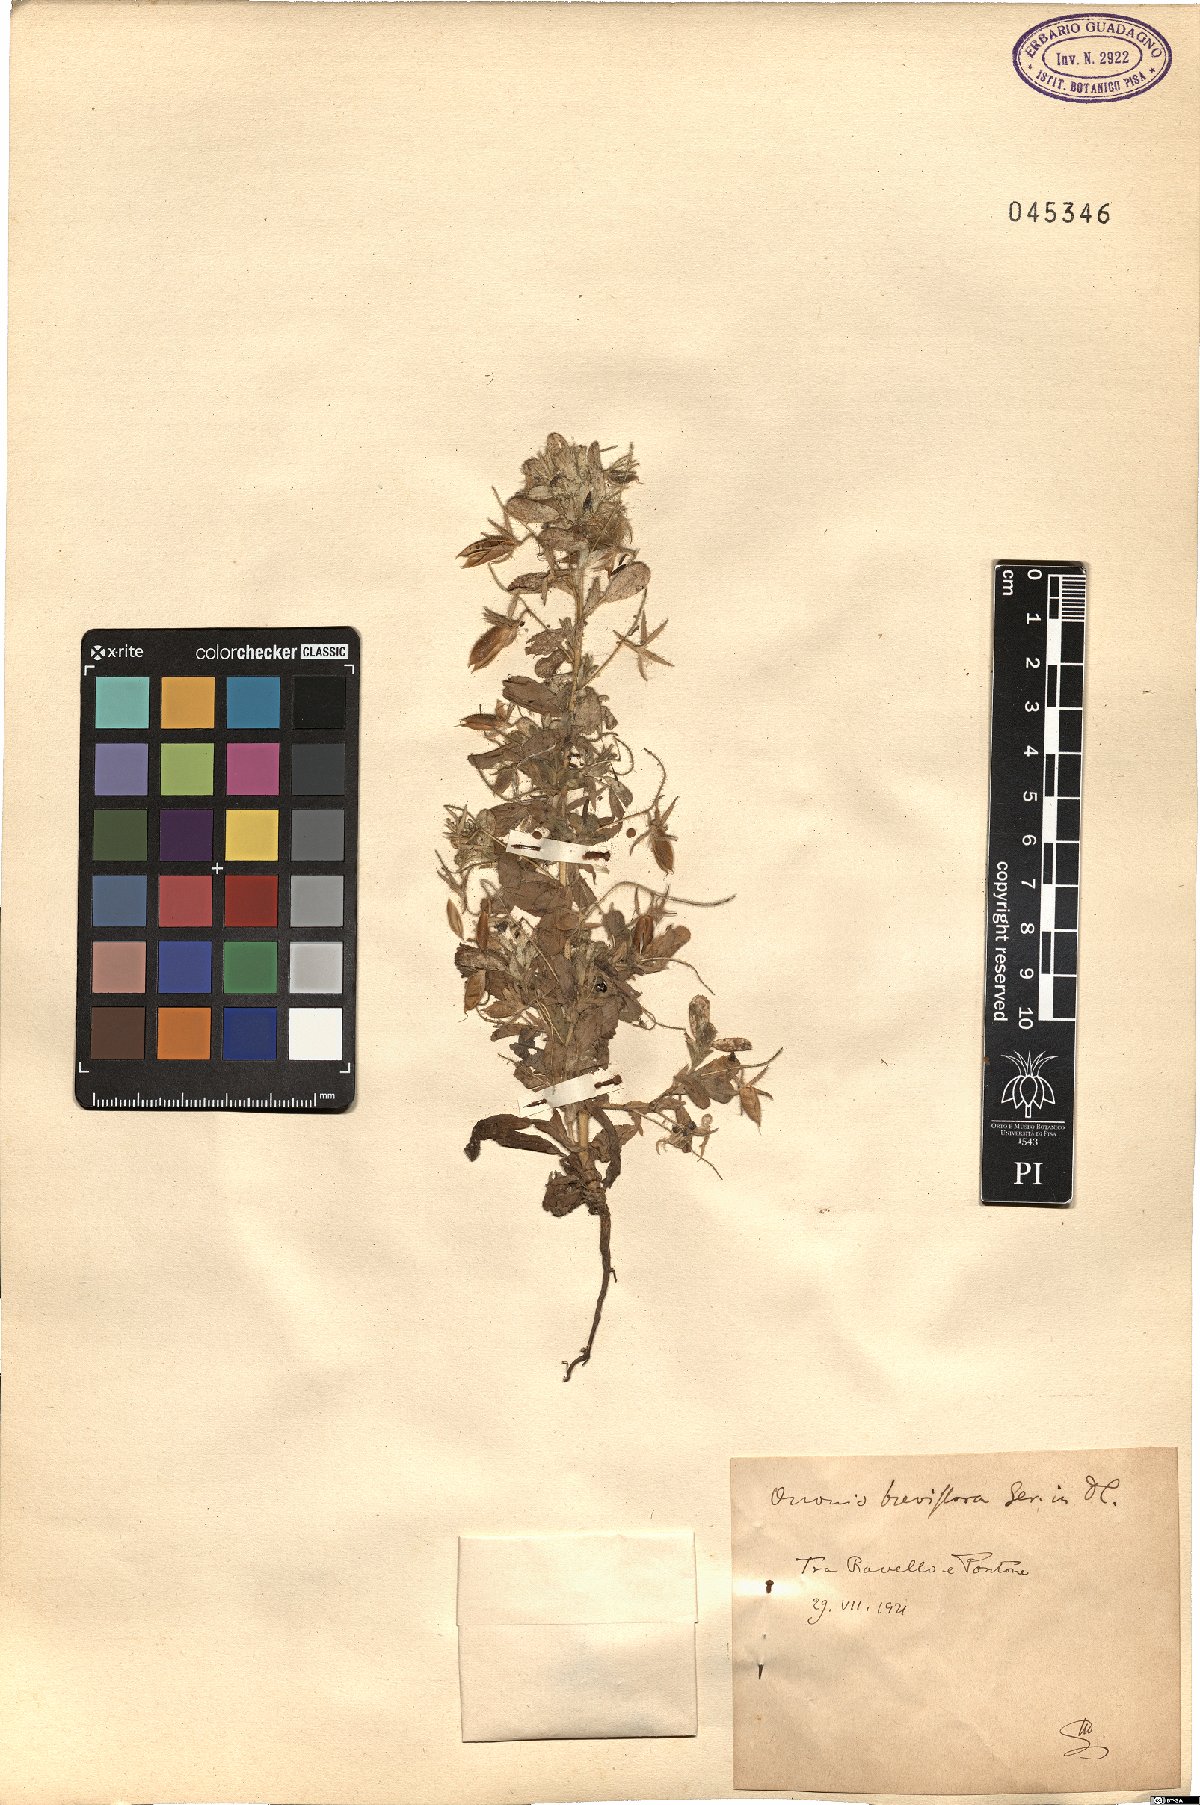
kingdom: Plantae
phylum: Tracheophyta
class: Magnoliopsida
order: Fabales
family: Fabaceae
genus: Ononis
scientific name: Ononis viscosa
